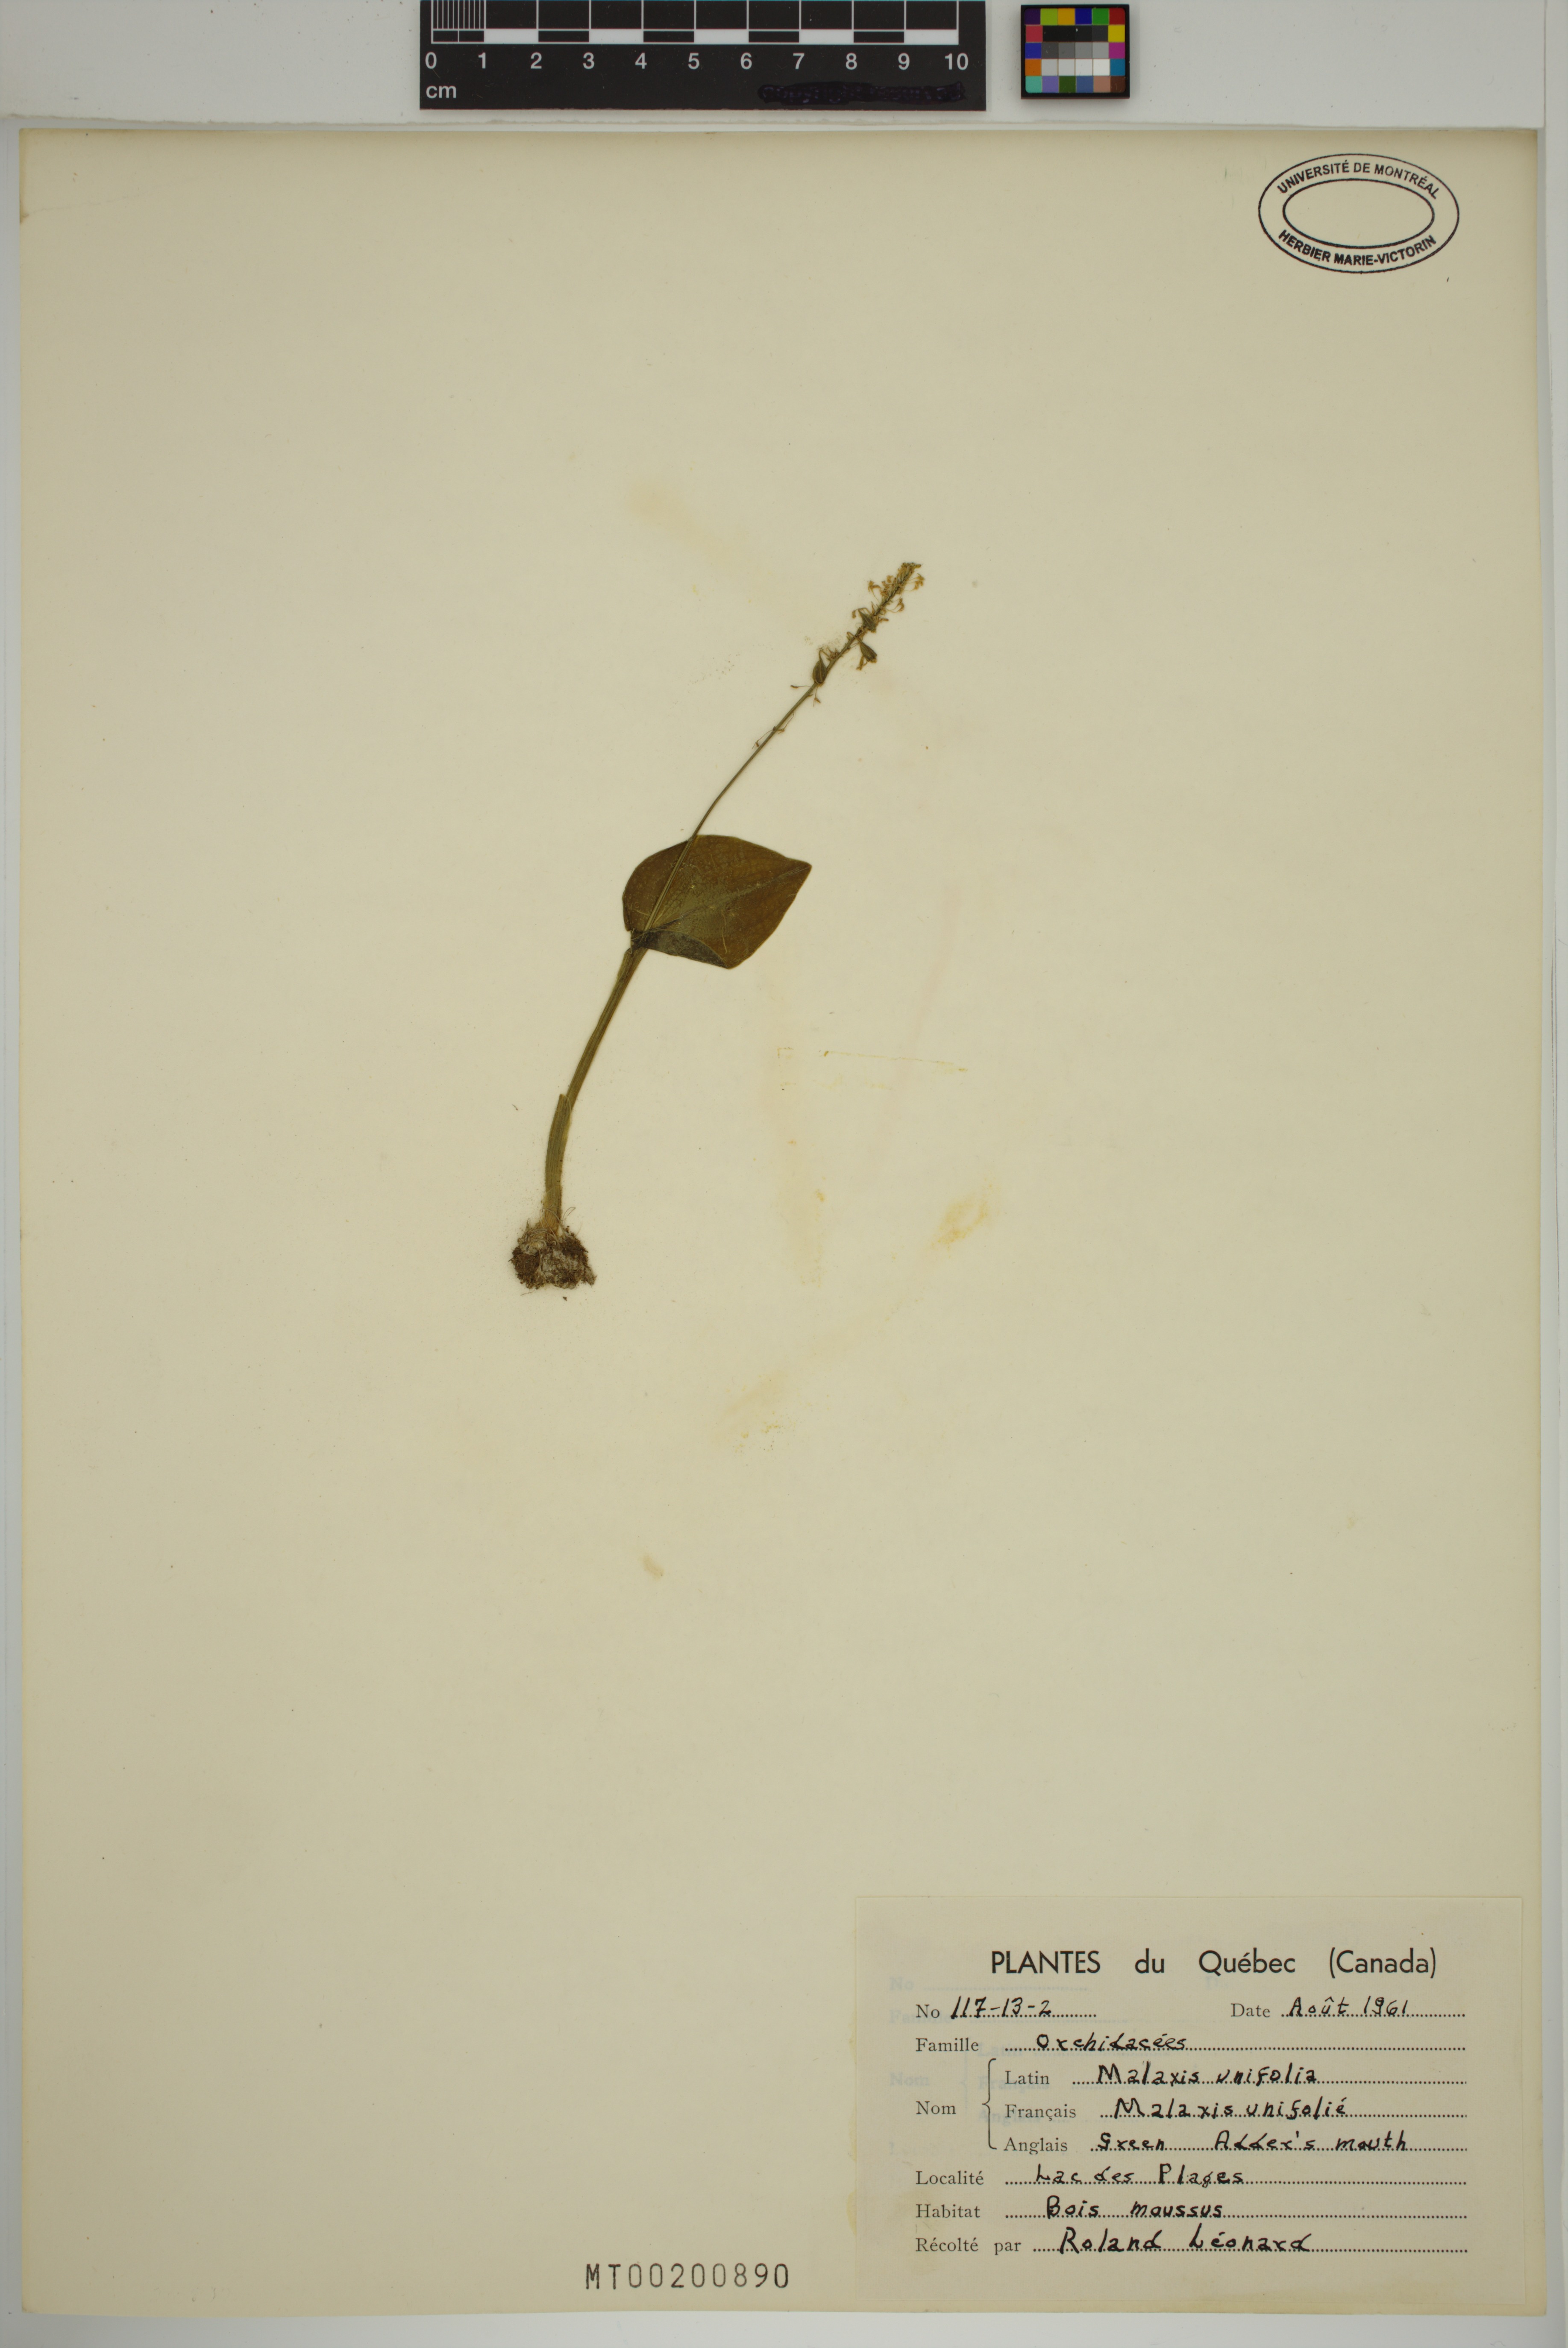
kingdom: Plantae
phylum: Tracheophyta
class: Liliopsida
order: Asparagales
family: Orchidaceae
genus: Malaxis
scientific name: Malaxis unifolia
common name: Green adder's-mouth
